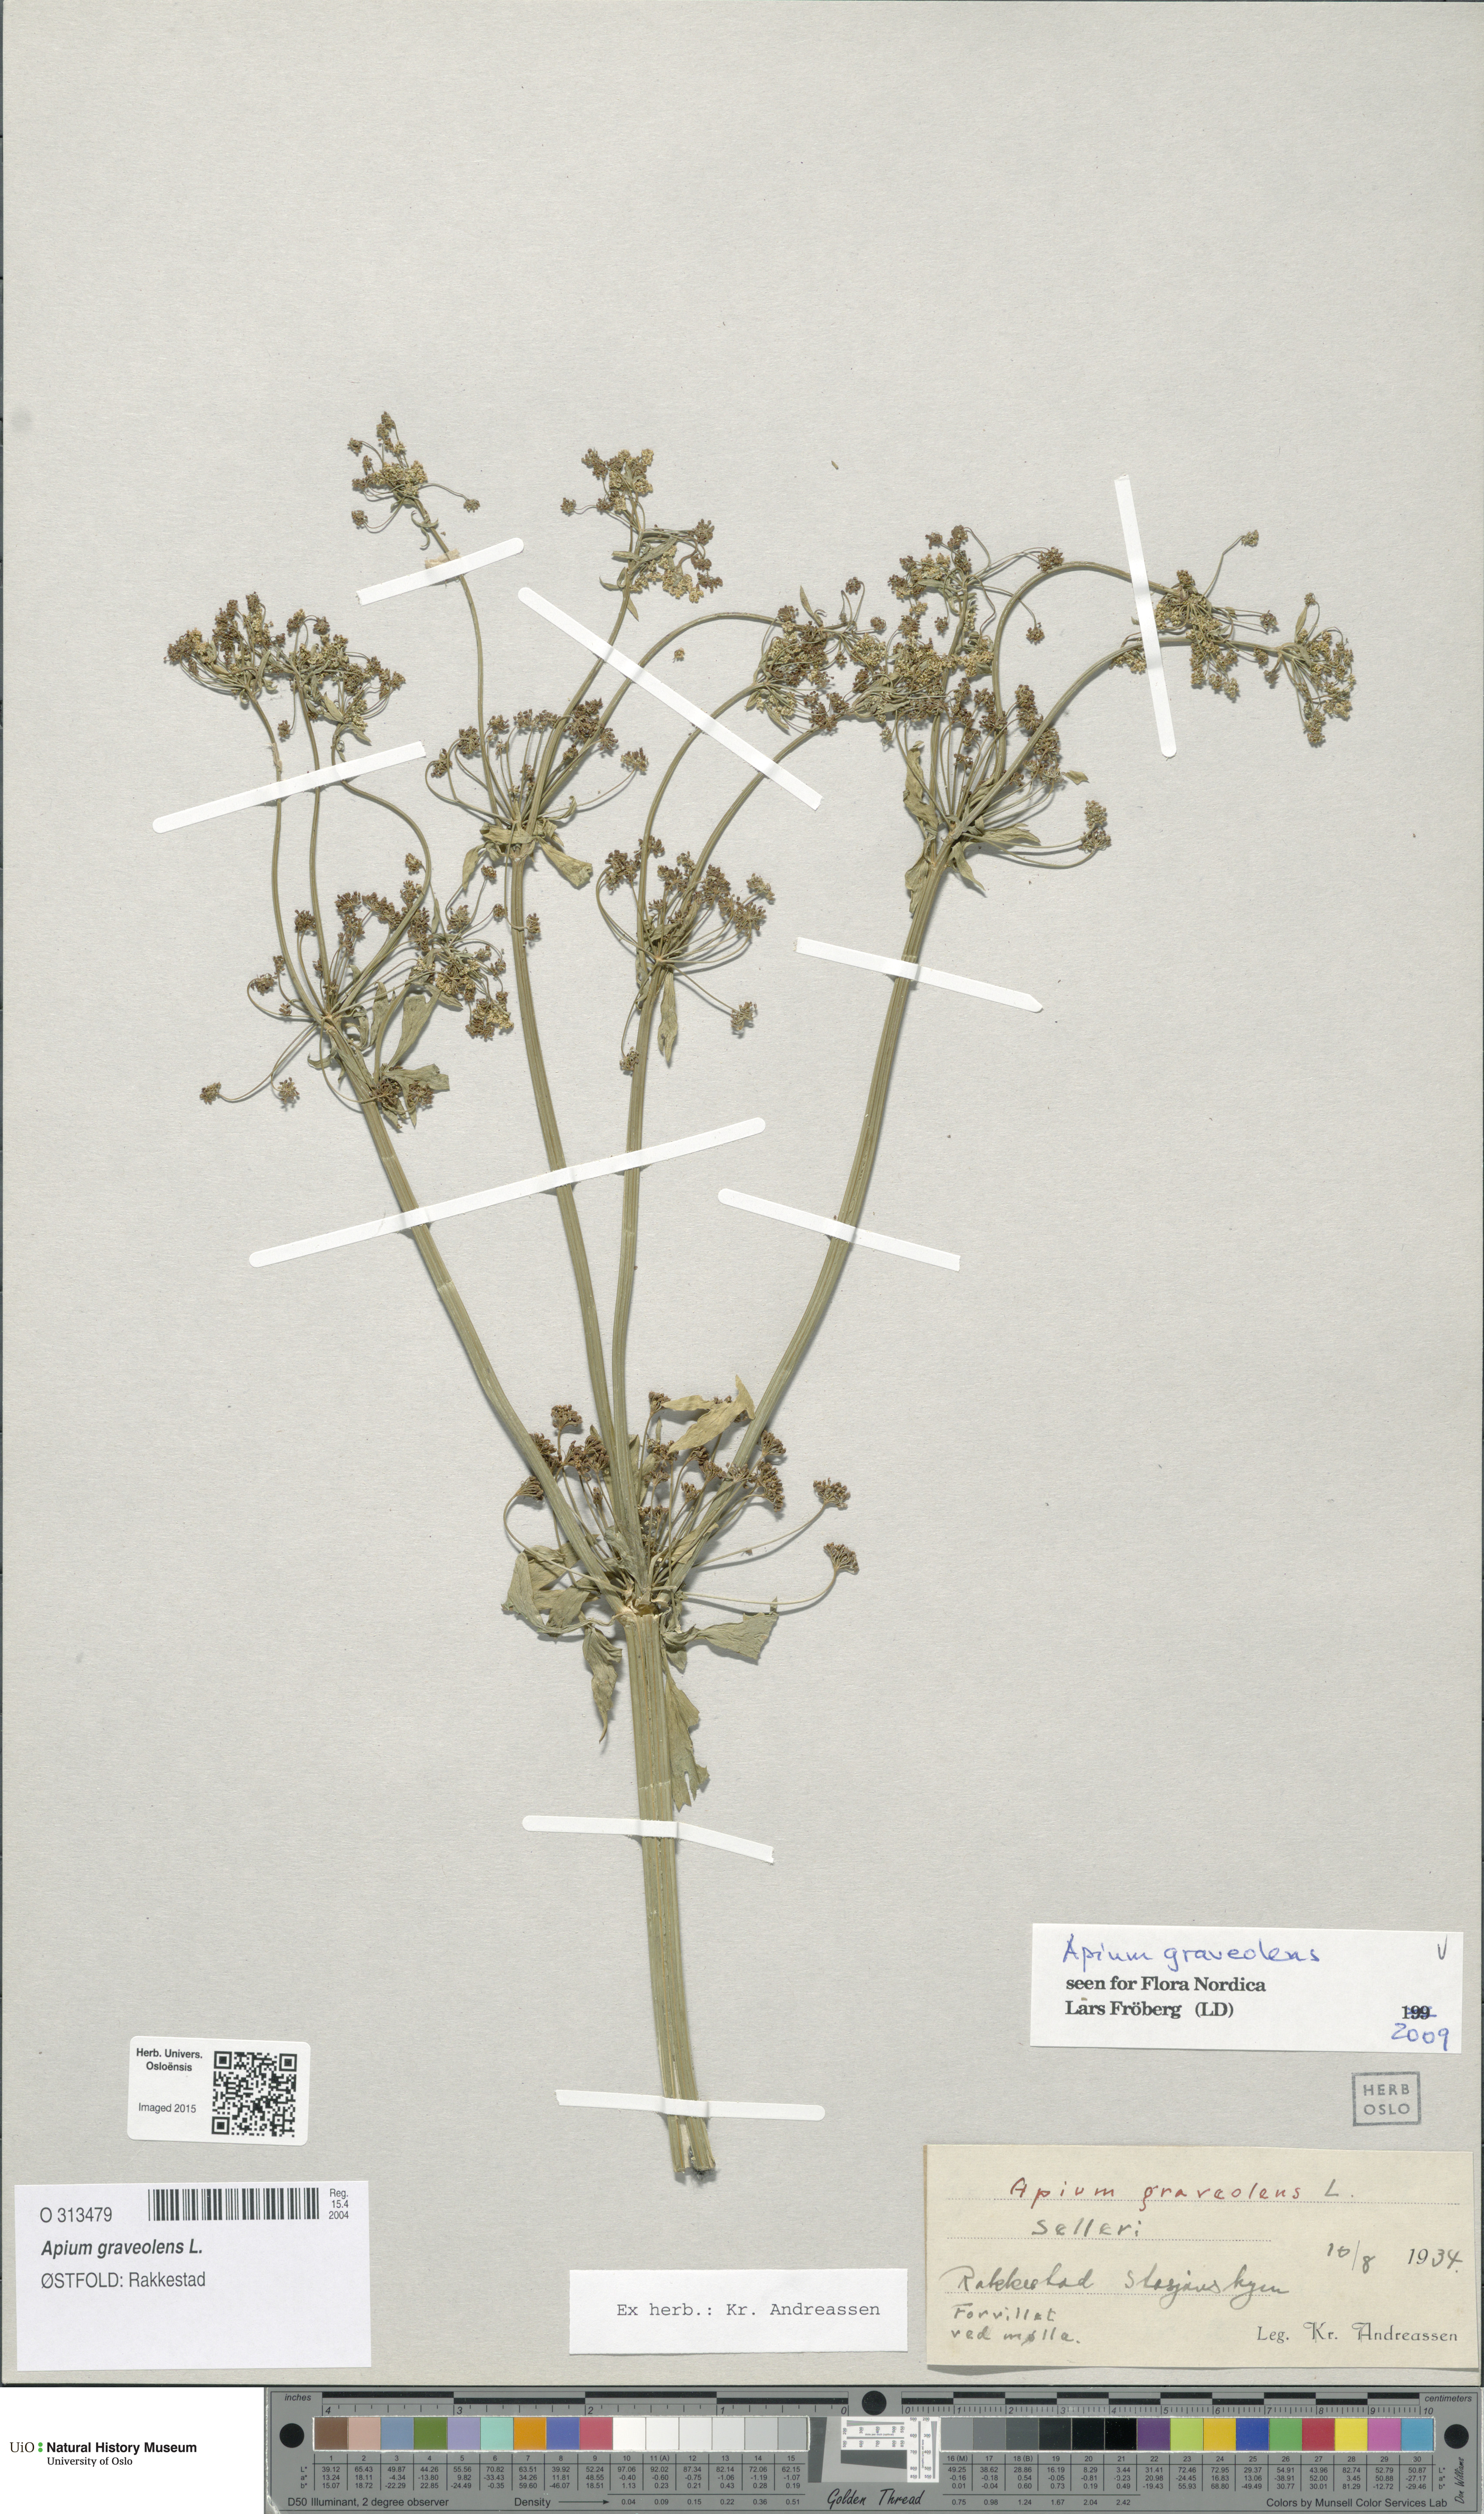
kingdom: Plantae
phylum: Tracheophyta
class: Magnoliopsida
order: Apiales
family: Apiaceae
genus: Apium
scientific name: Apium graveolens
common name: Wild celery
